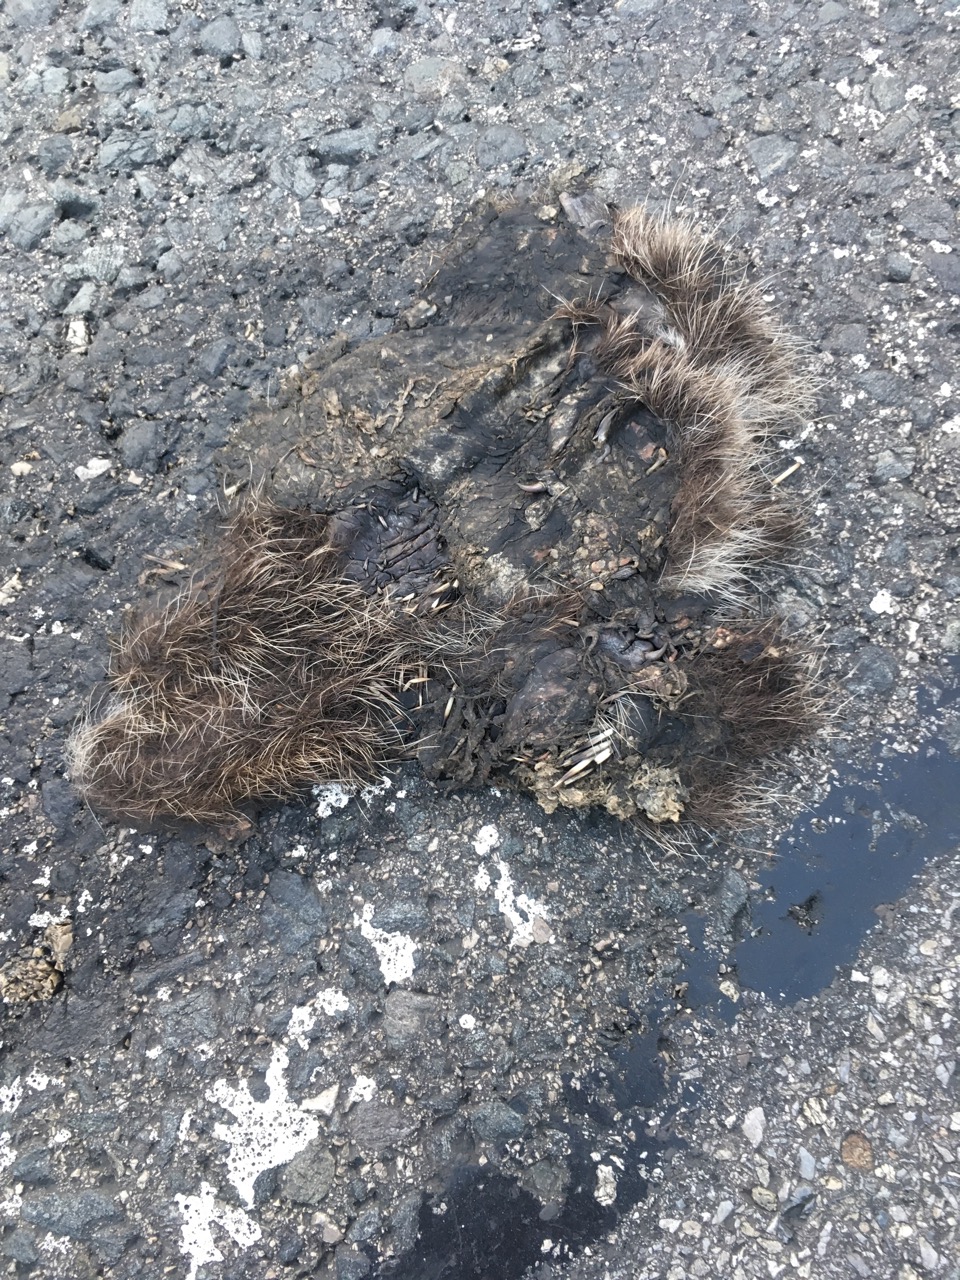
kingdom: Animalia
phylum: Chordata
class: Mammalia
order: Erinaceomorpha
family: Erinaceidae
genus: Erinaceus
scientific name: Erinaceus
